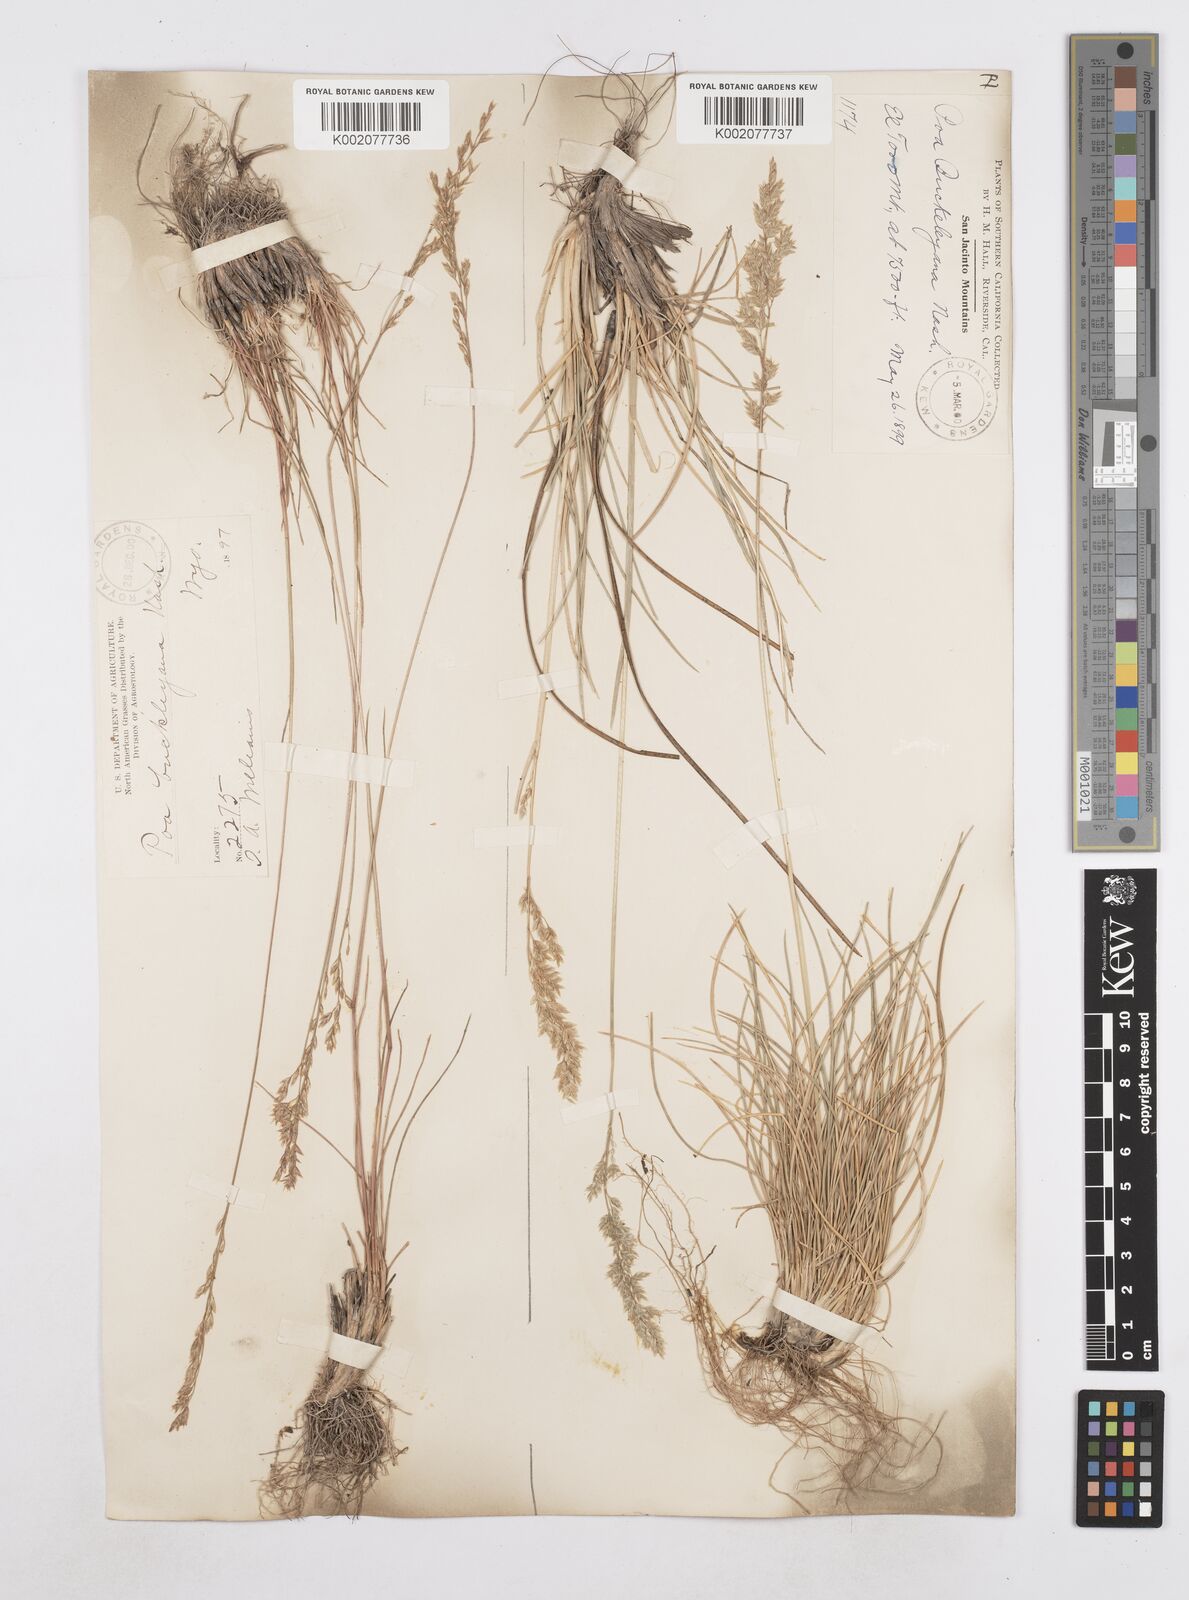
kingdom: Plantae
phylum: Tracheophyta
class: Liliopsida
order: Poales
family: Poaceae
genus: Poa
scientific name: Poa secunda
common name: Sandberg bluegrass
